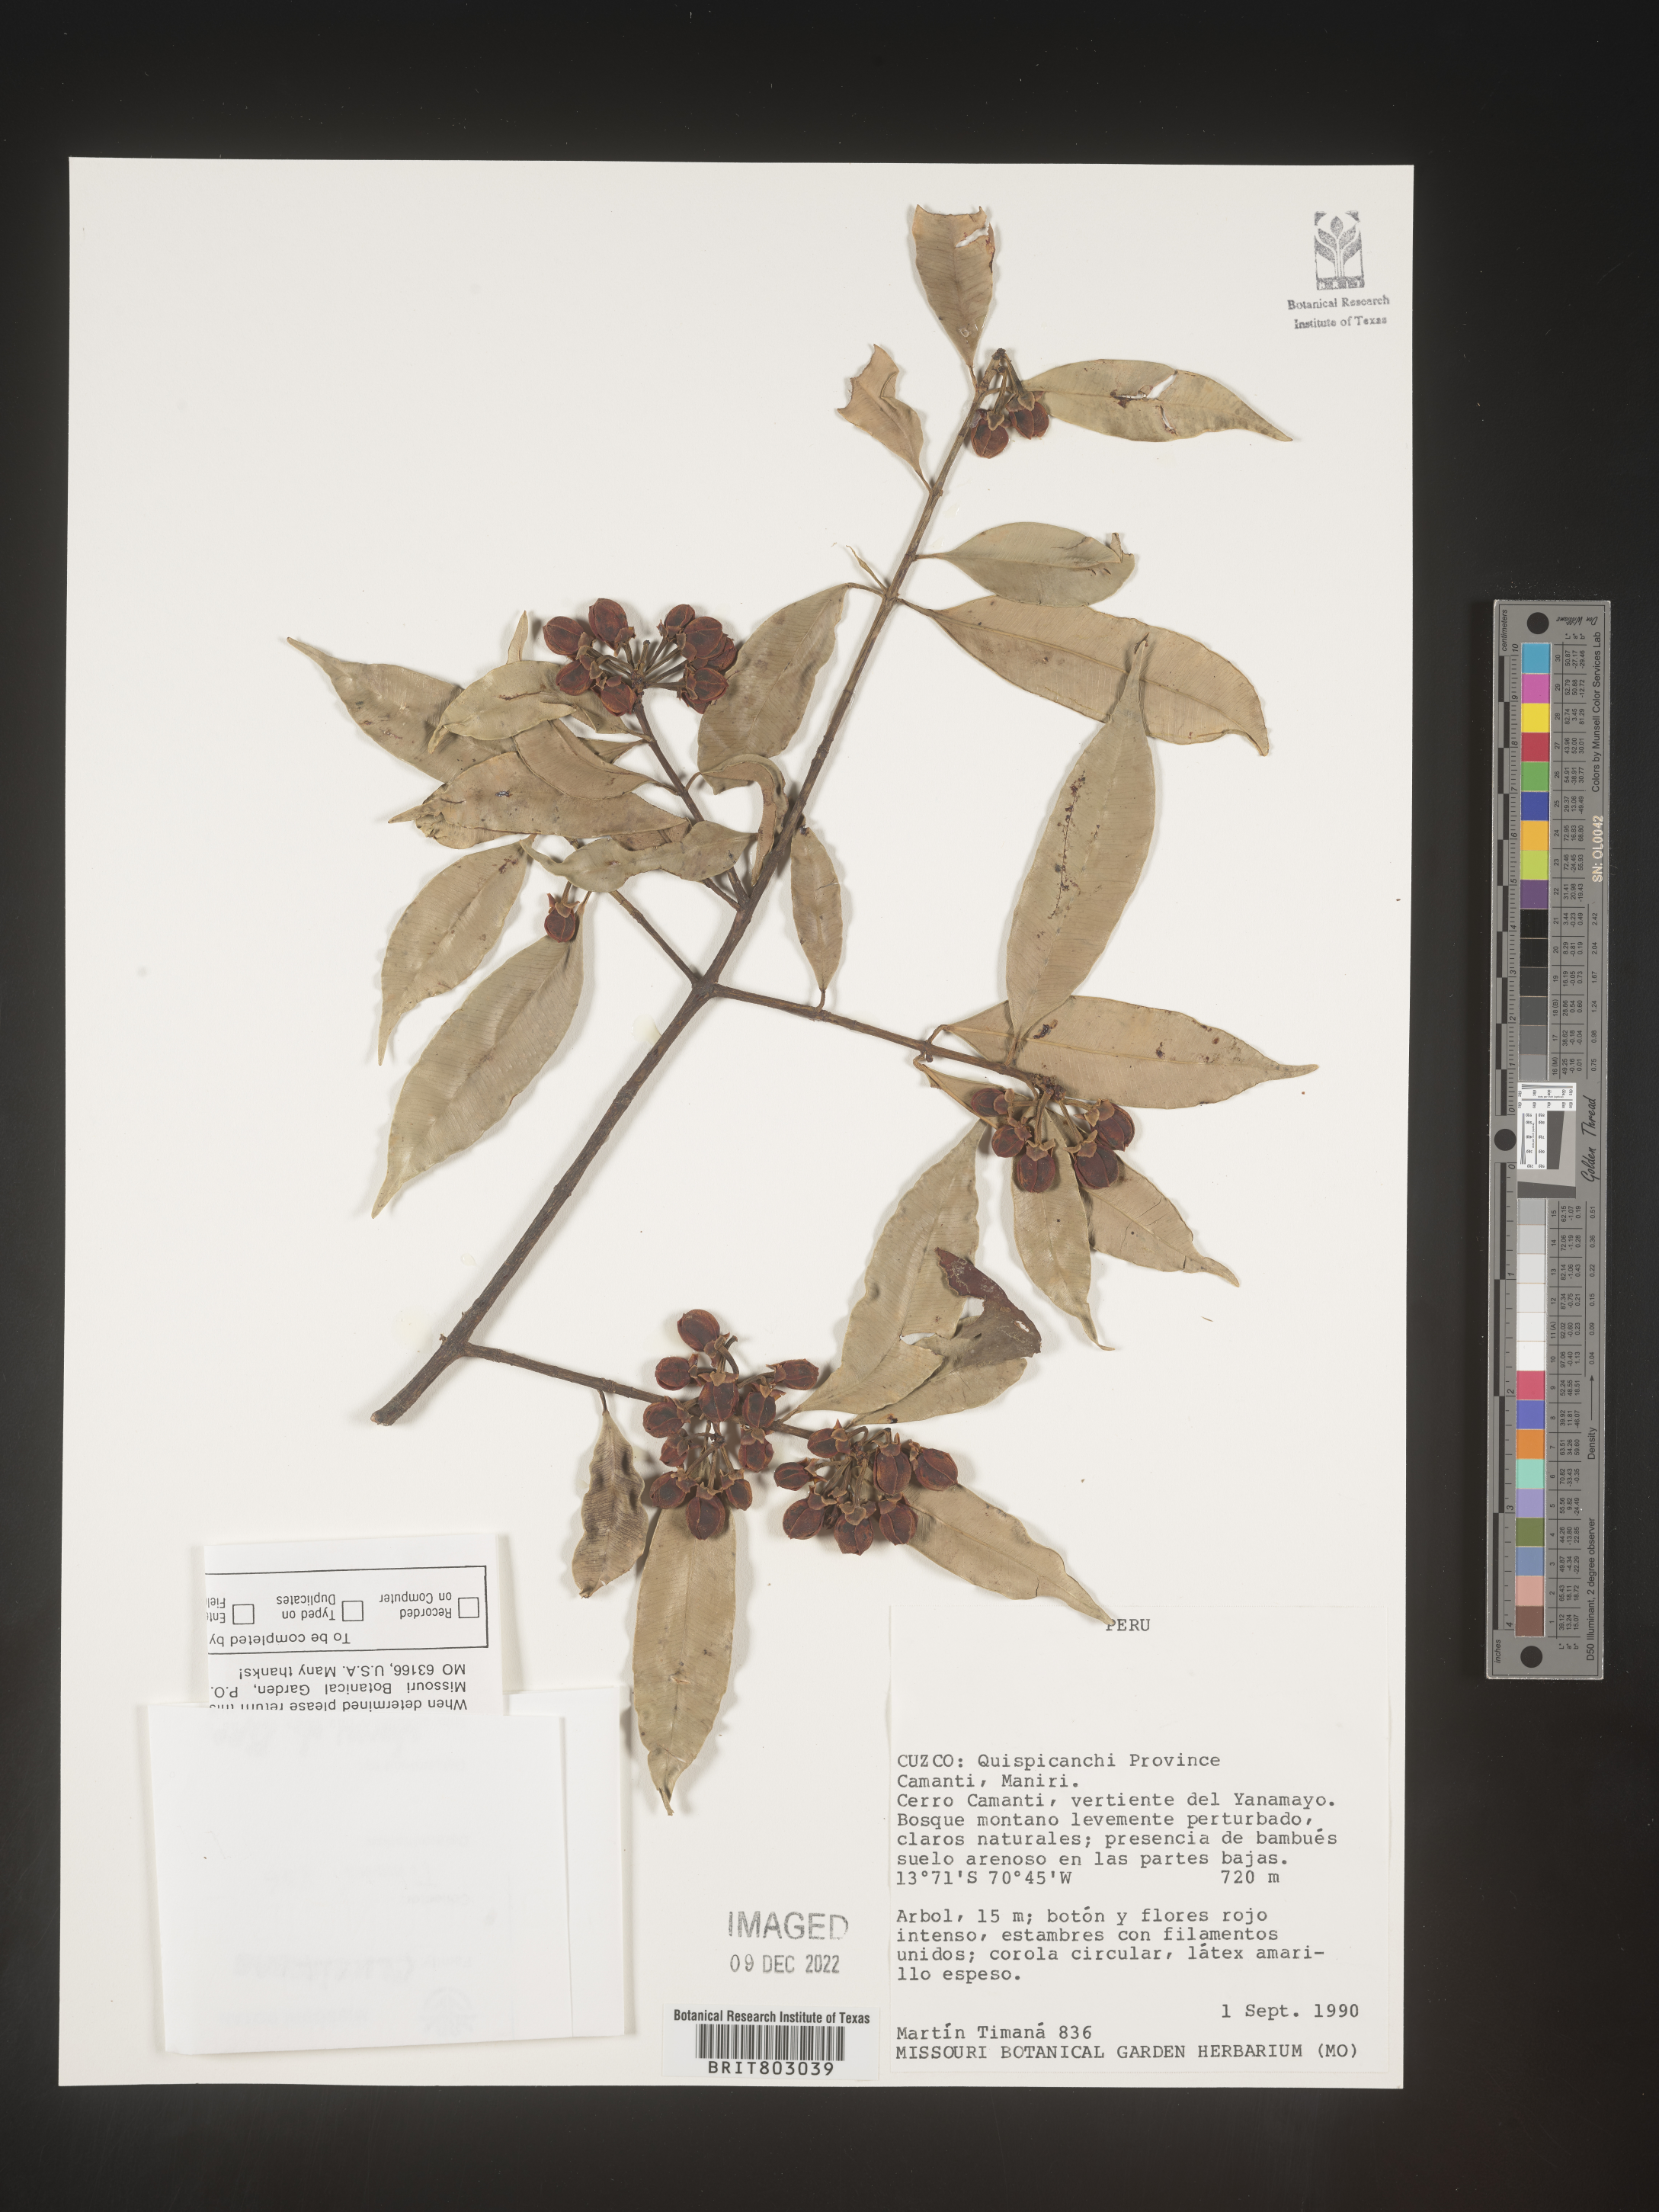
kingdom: Plantae
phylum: Tracheophyta
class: Magnoliopsida
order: Malpighiales
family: Clusiaceae
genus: Symphonia
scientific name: Symphonia
